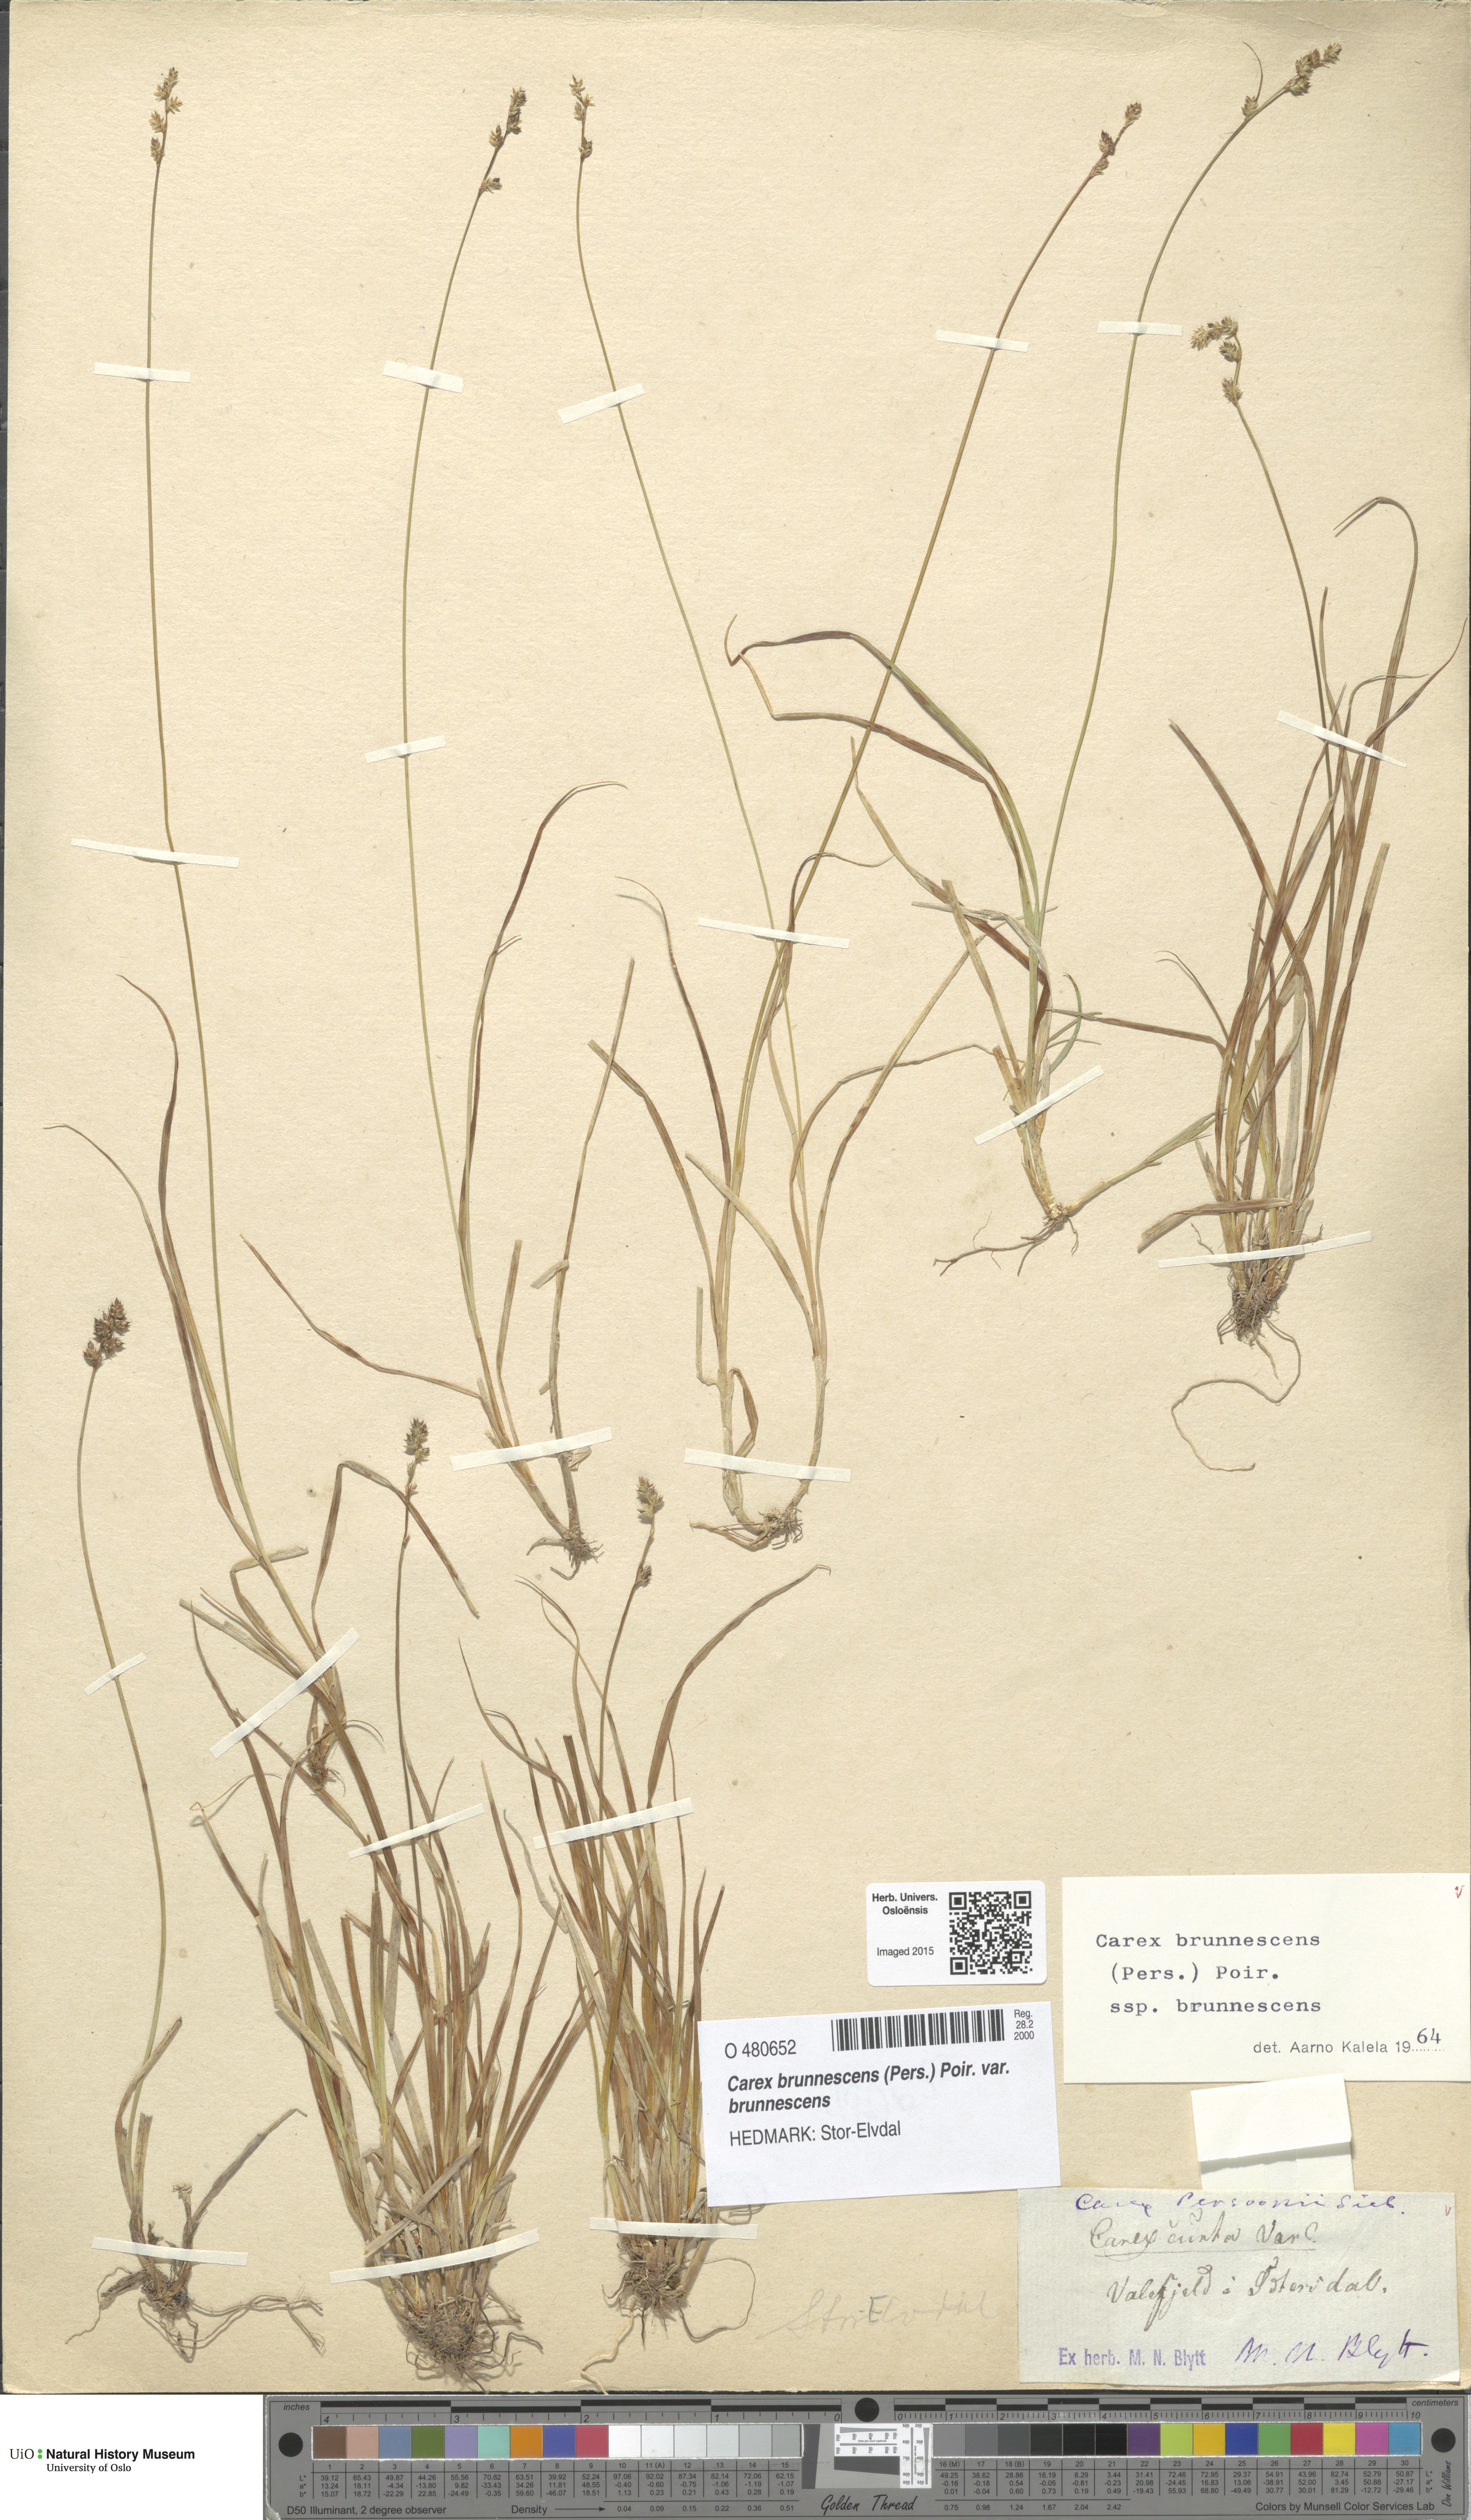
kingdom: Plantae
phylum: Tracheophyta
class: Liliopsida
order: Poales
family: Cyperaceae
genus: Carex
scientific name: Carex brunnescens
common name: Brown sedge
